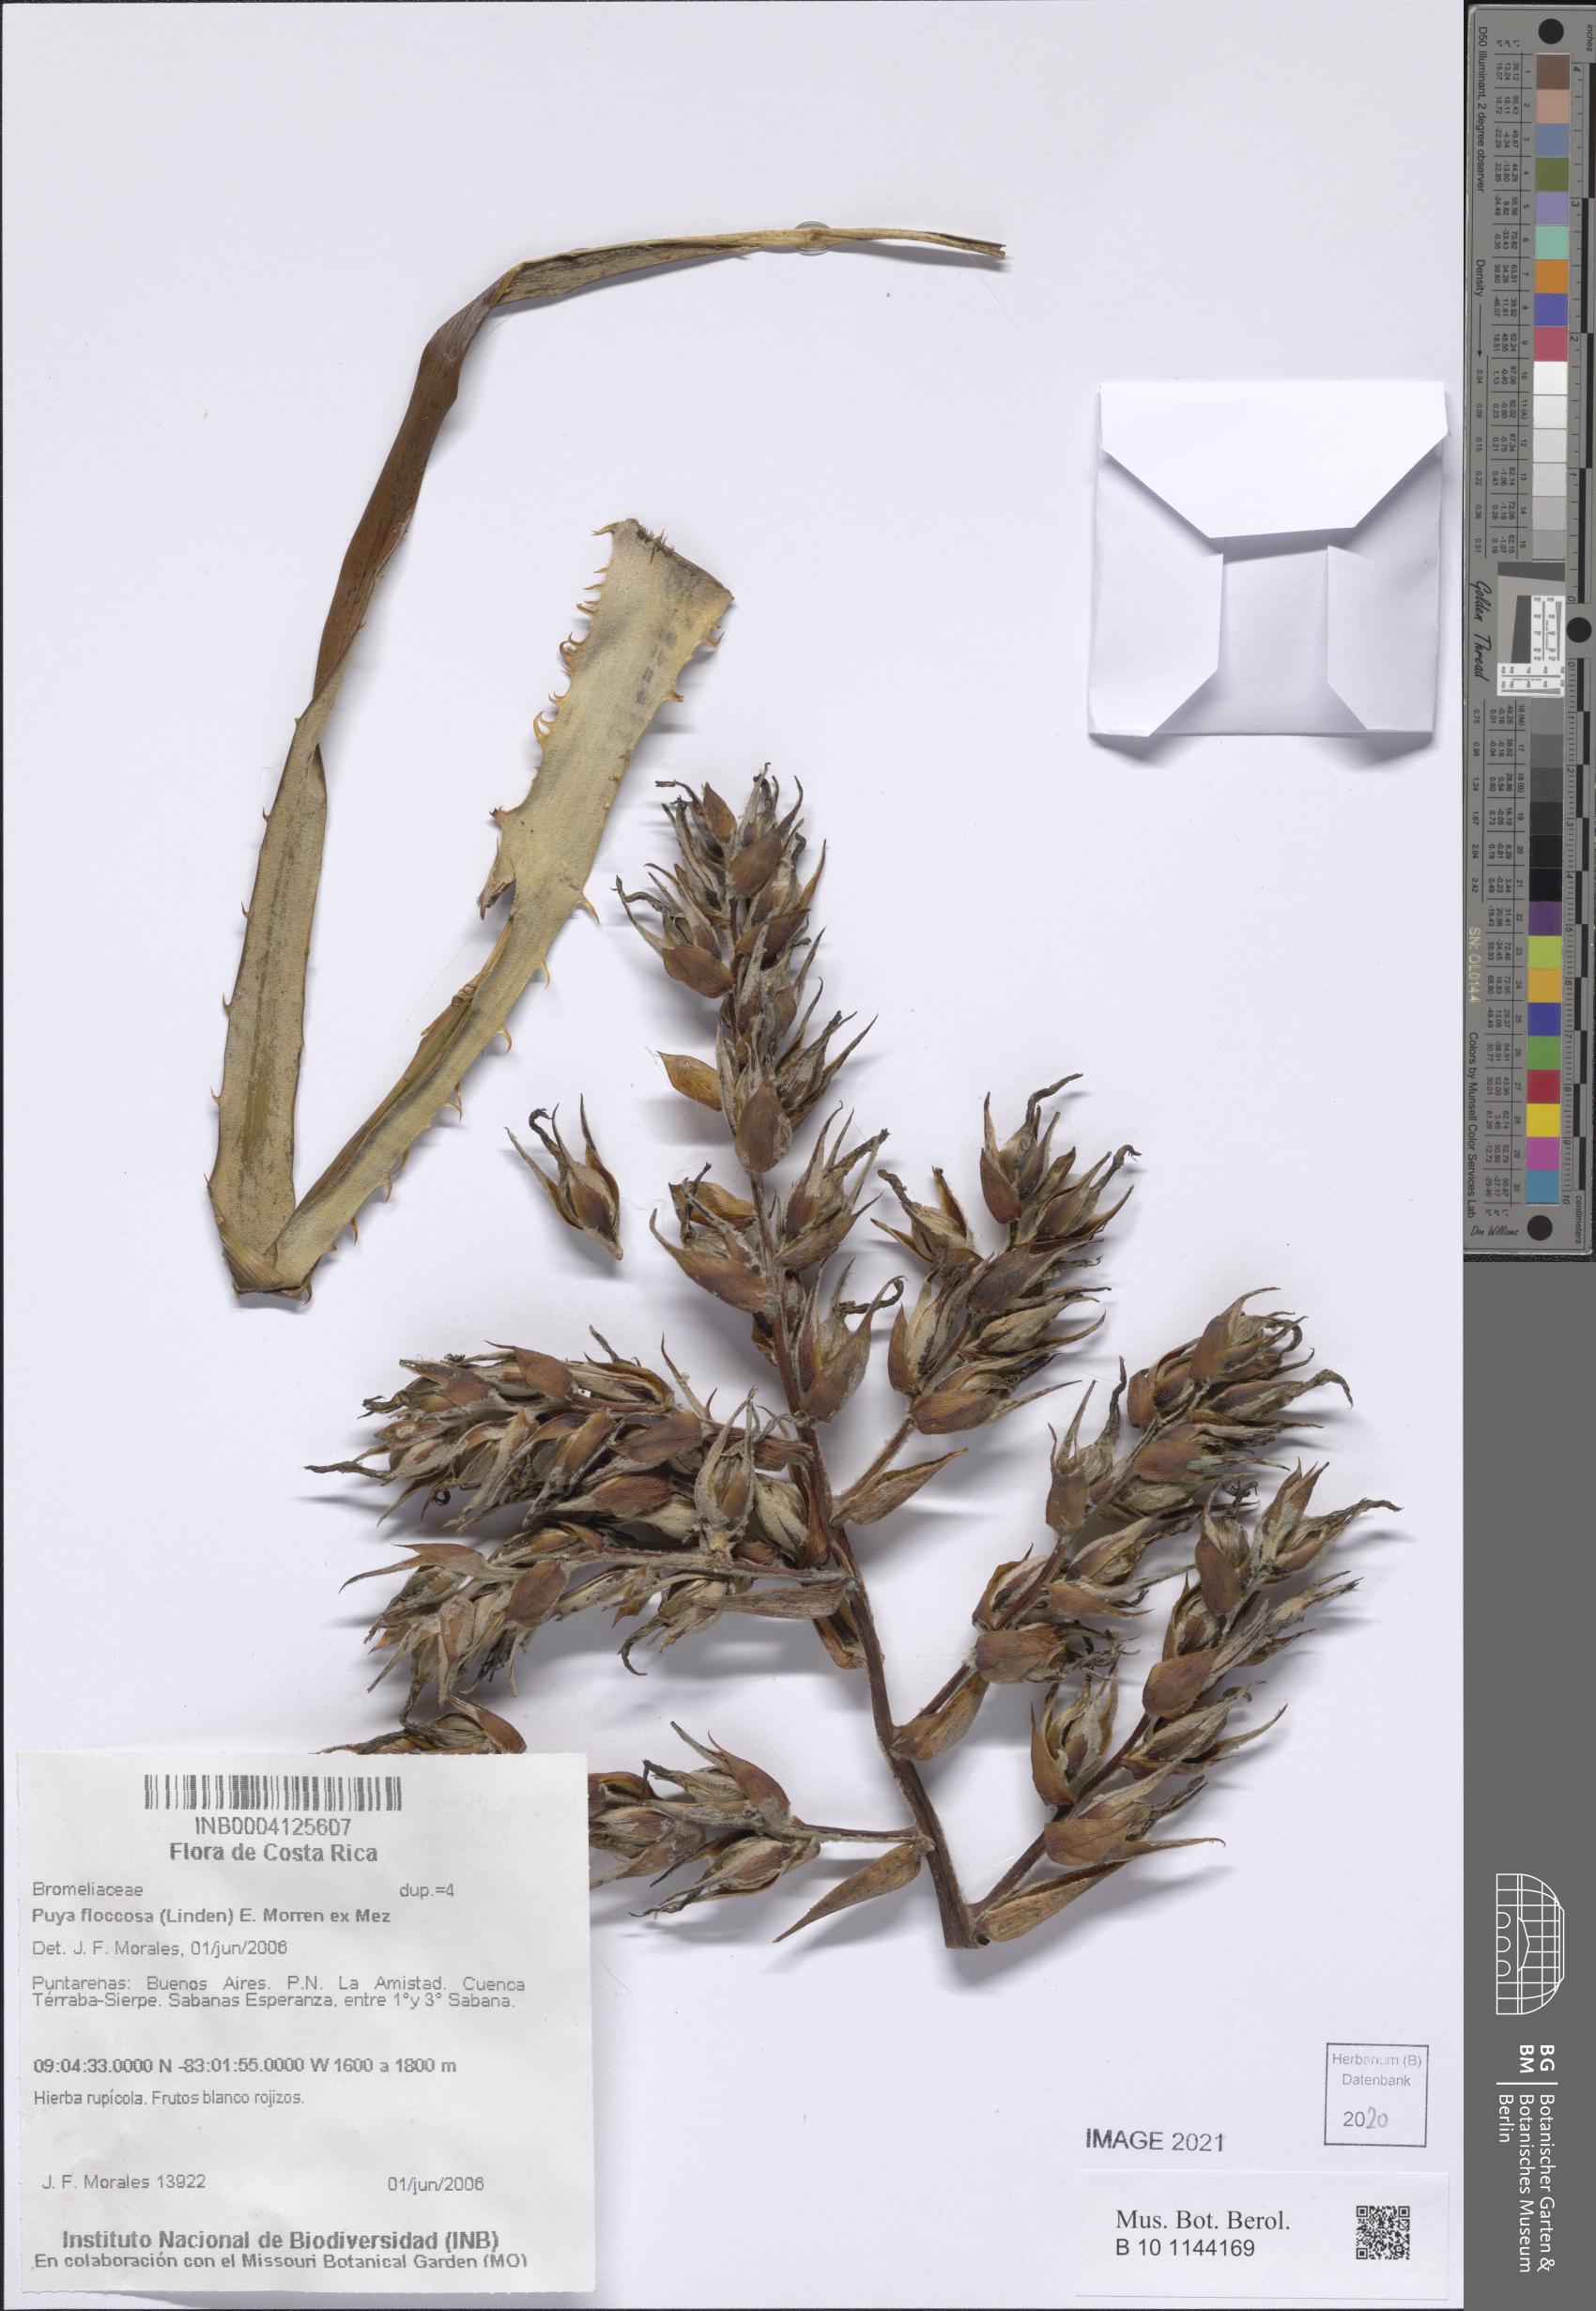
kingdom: Plantae
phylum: Tracheophyta
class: Liliopsida
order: Poales
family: Bromeliaceae
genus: Puya
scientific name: Puya floccosa
